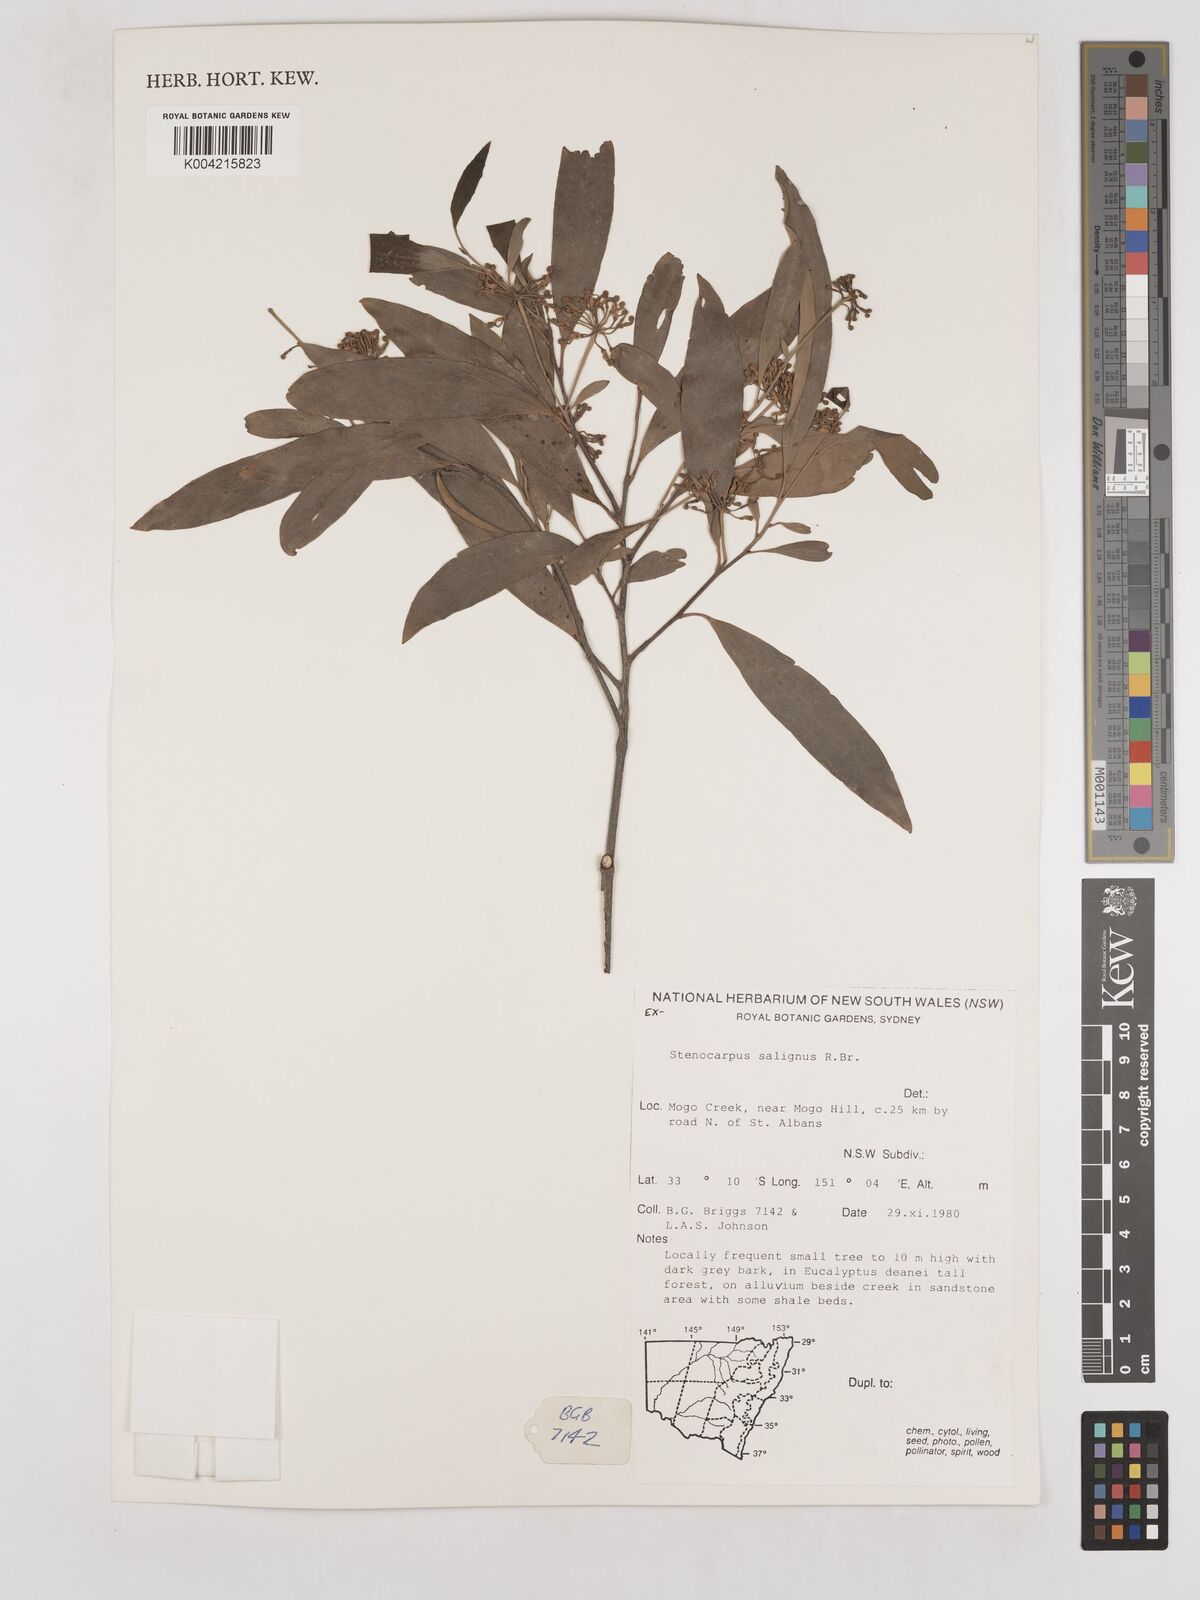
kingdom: Plantae
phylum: Tracheophyta
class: Magnoliopsida
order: Proteales
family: Proteaceae
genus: Stenocarpus
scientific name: Stenocarpus salignus
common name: Red silky-oak
